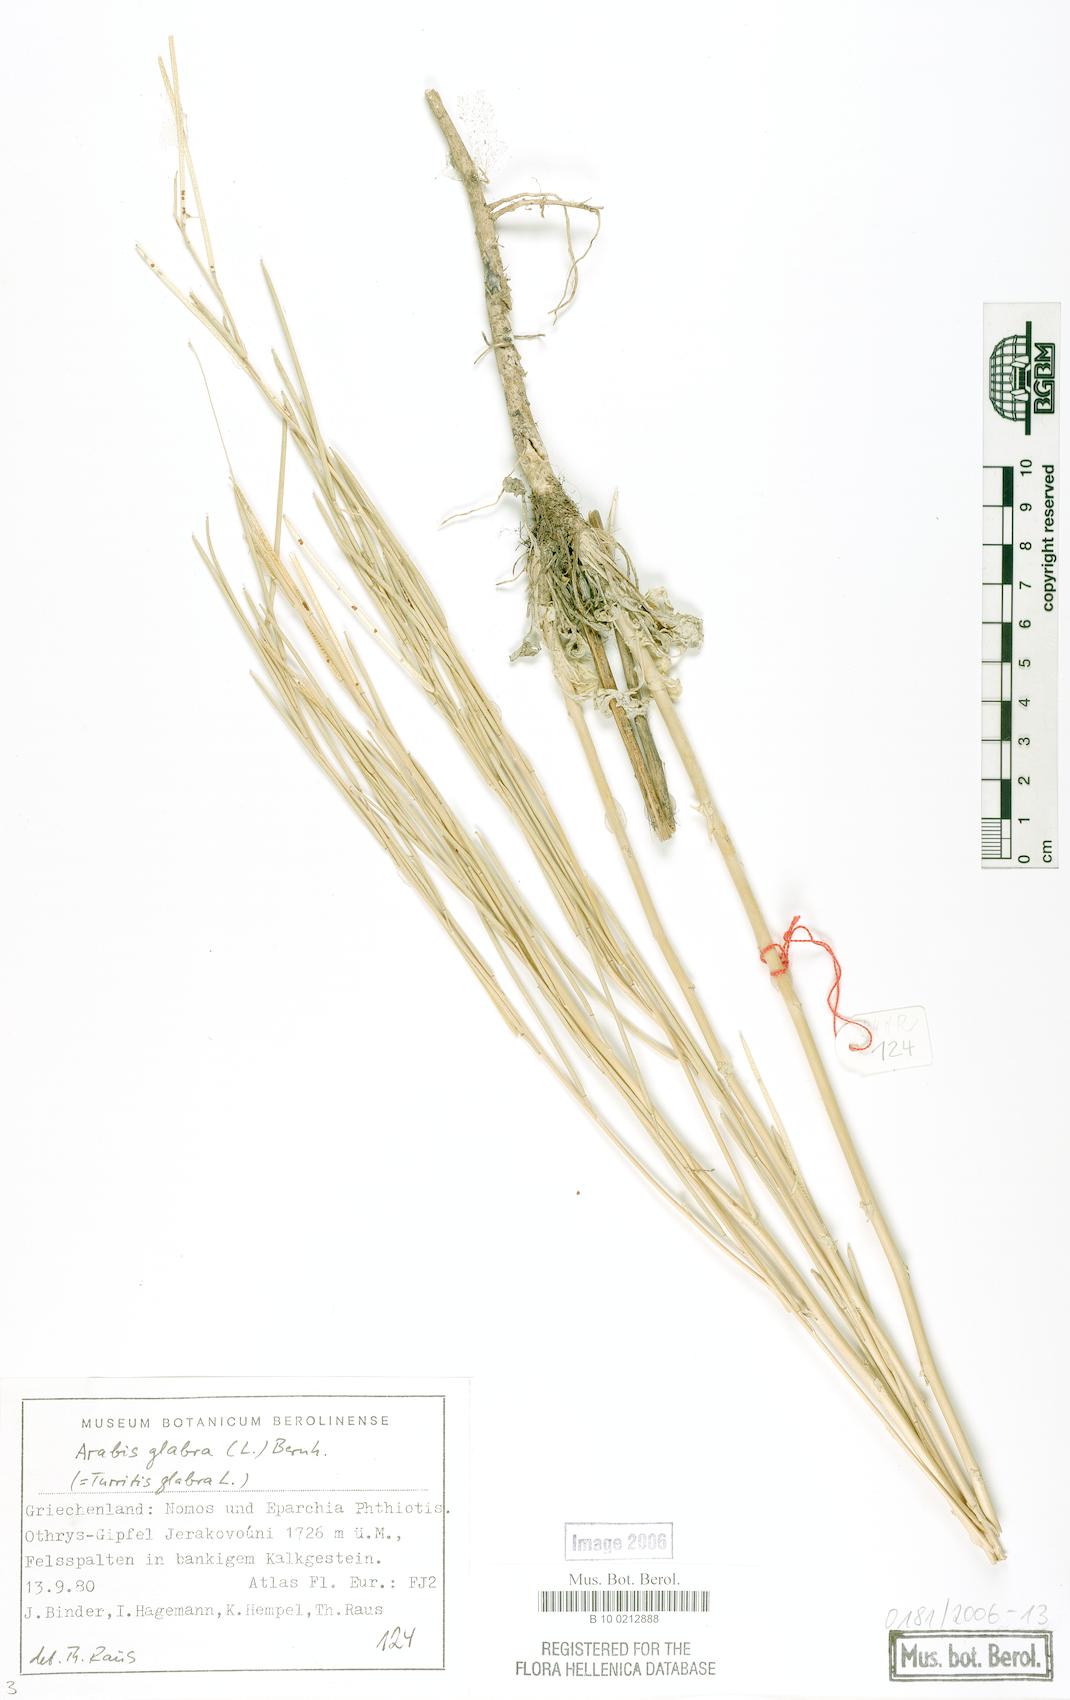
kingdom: Plantae
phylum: Tracheophyta
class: Magnoliopsida
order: Brassicales
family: Brassicaceae
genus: Turritis
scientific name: Turritis glabra
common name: Tower rockcress
